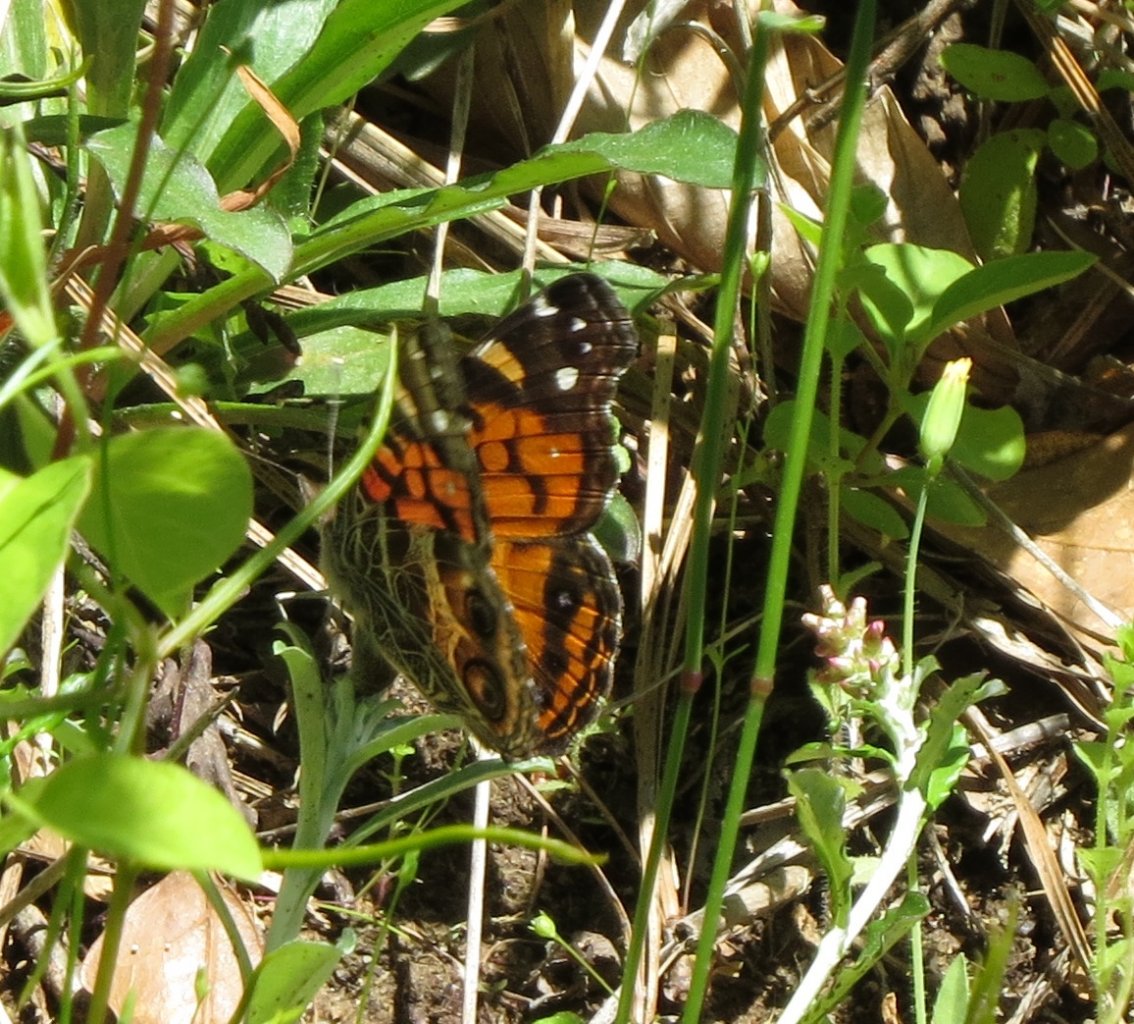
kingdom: Animalia
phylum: Arthropoda
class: Insecta
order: Lepidoptera
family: Nymphalidae
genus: Vanessa
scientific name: Vanessa virginiensis
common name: American Lady
